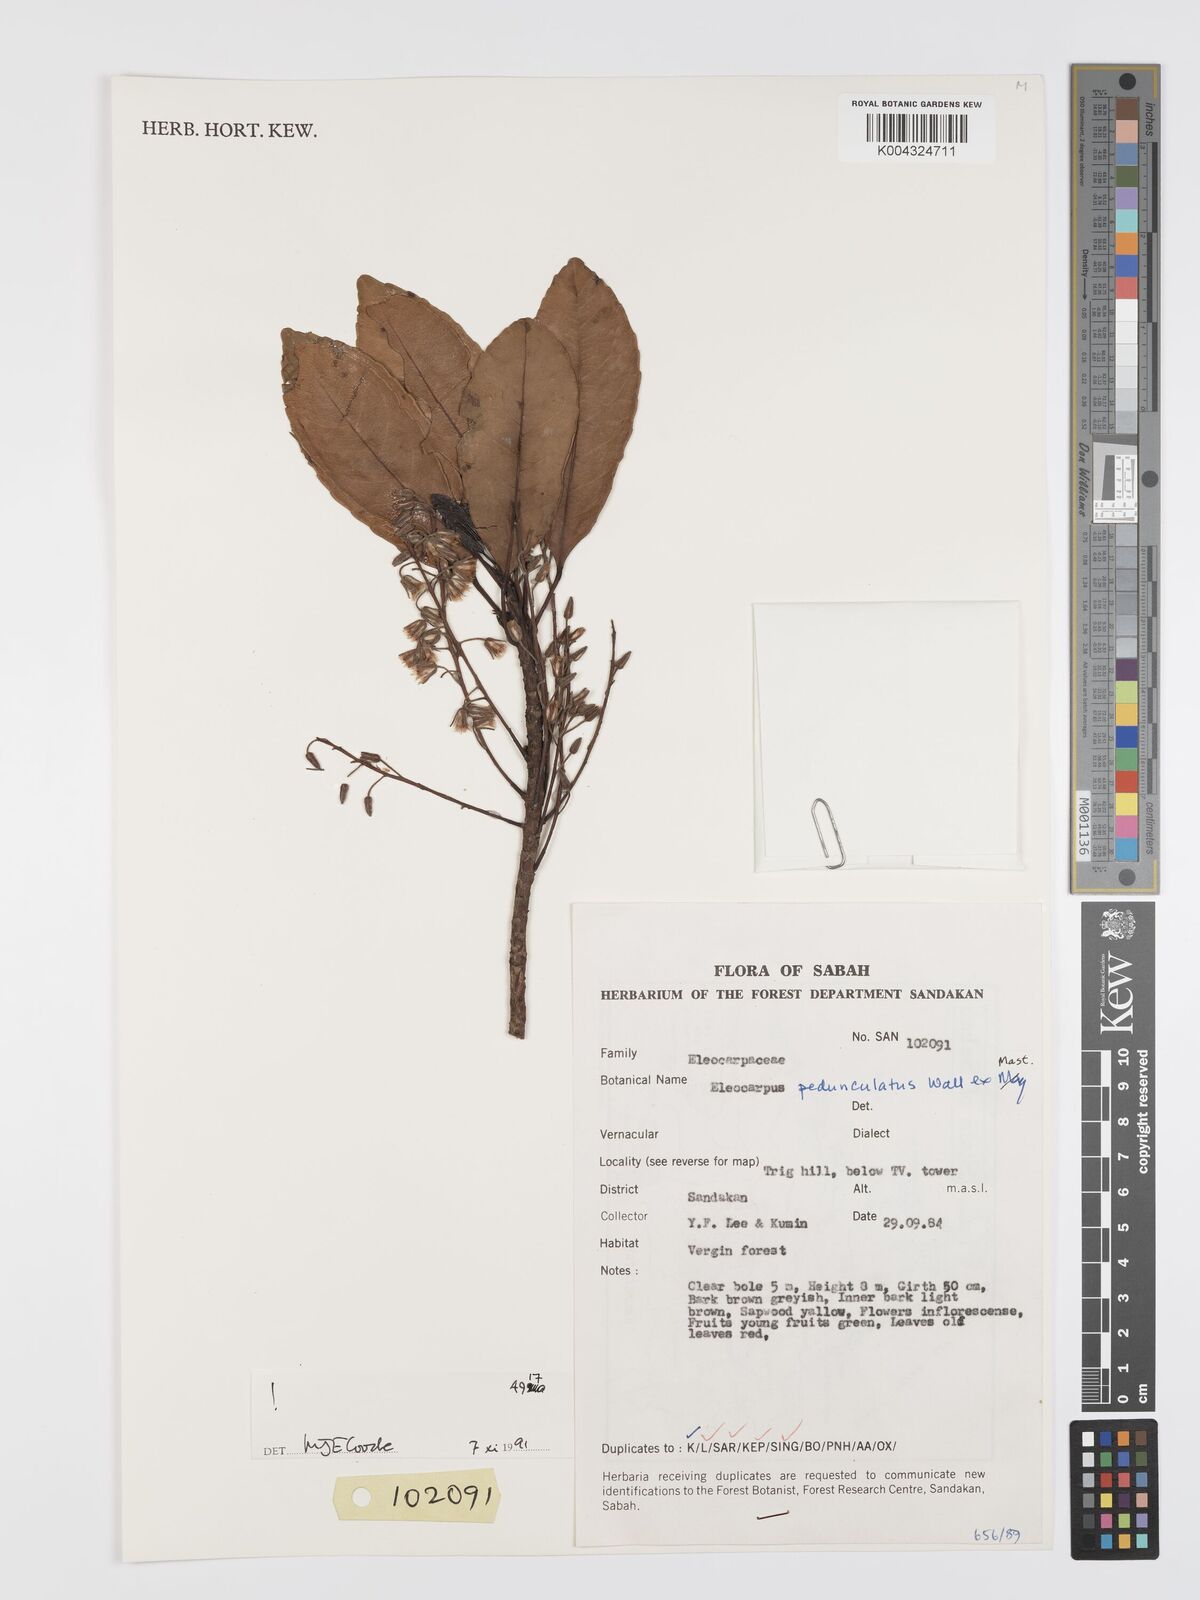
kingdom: Plantae
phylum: Tracheophyta
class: Magnoliopsida
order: Oxalidales
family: Elaeocarpaceae
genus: Elaeocarpus
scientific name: Elaeocarpus pedunculatus
